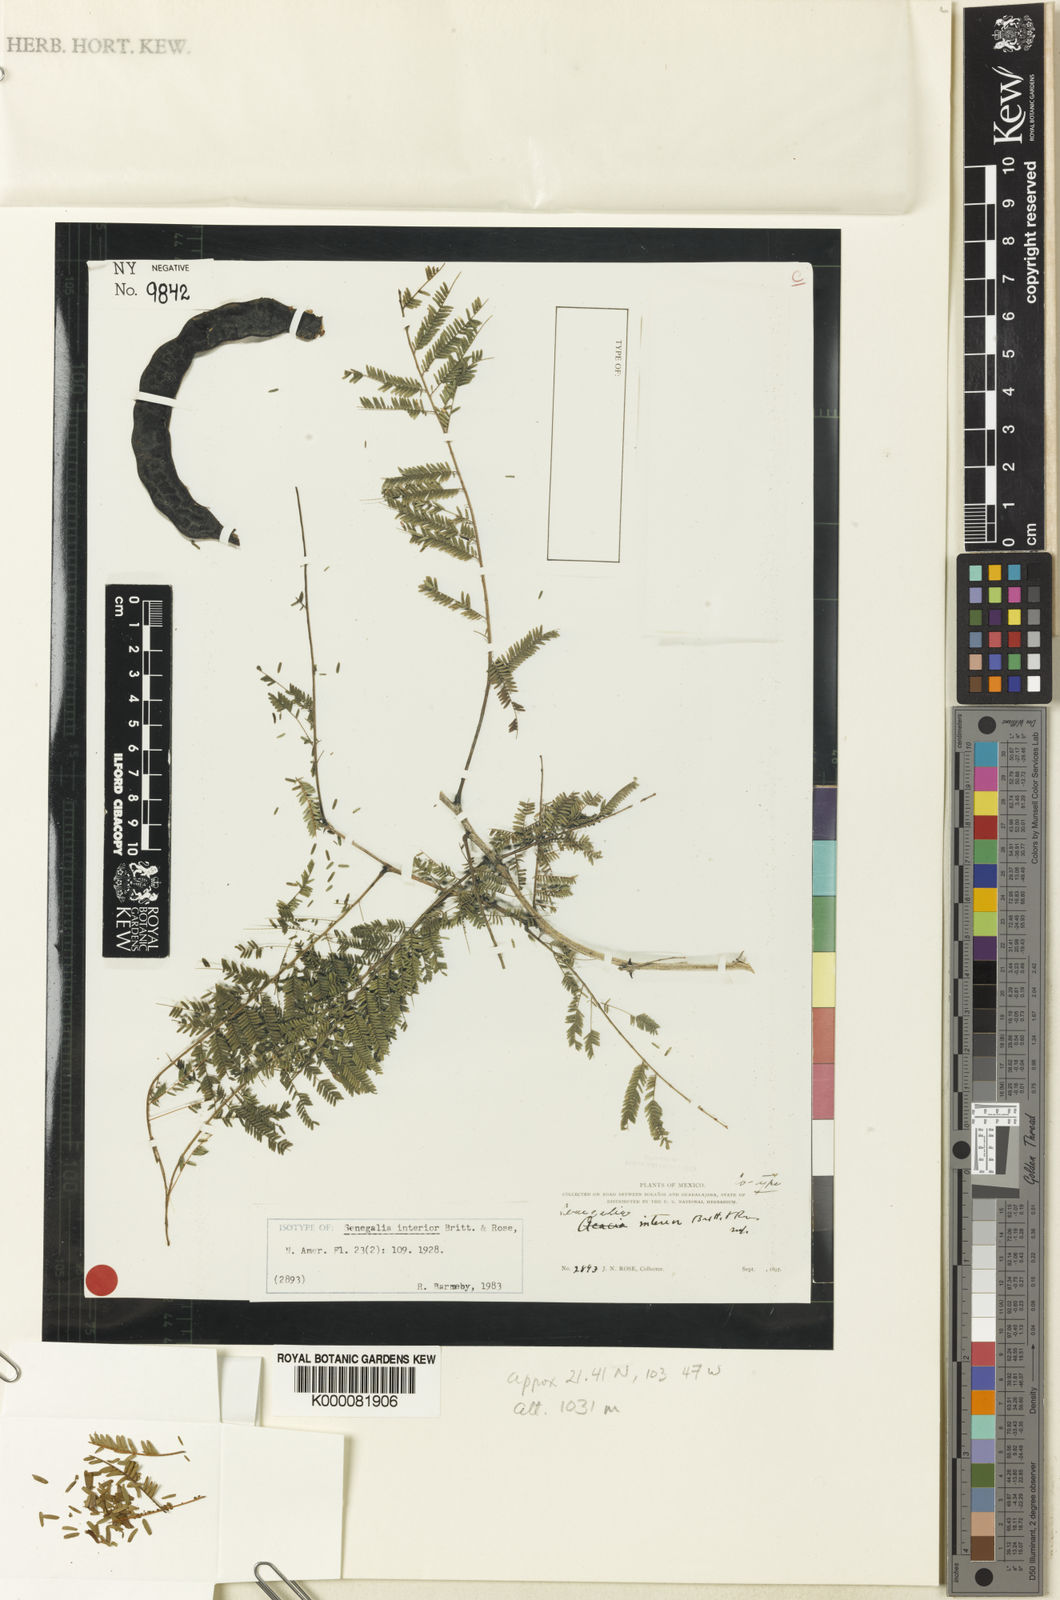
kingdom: Plantae
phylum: Tracheophyta
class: Magnoliopsida
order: Fabales
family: Fabaceae
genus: Senegalia
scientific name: Senegalia interior
